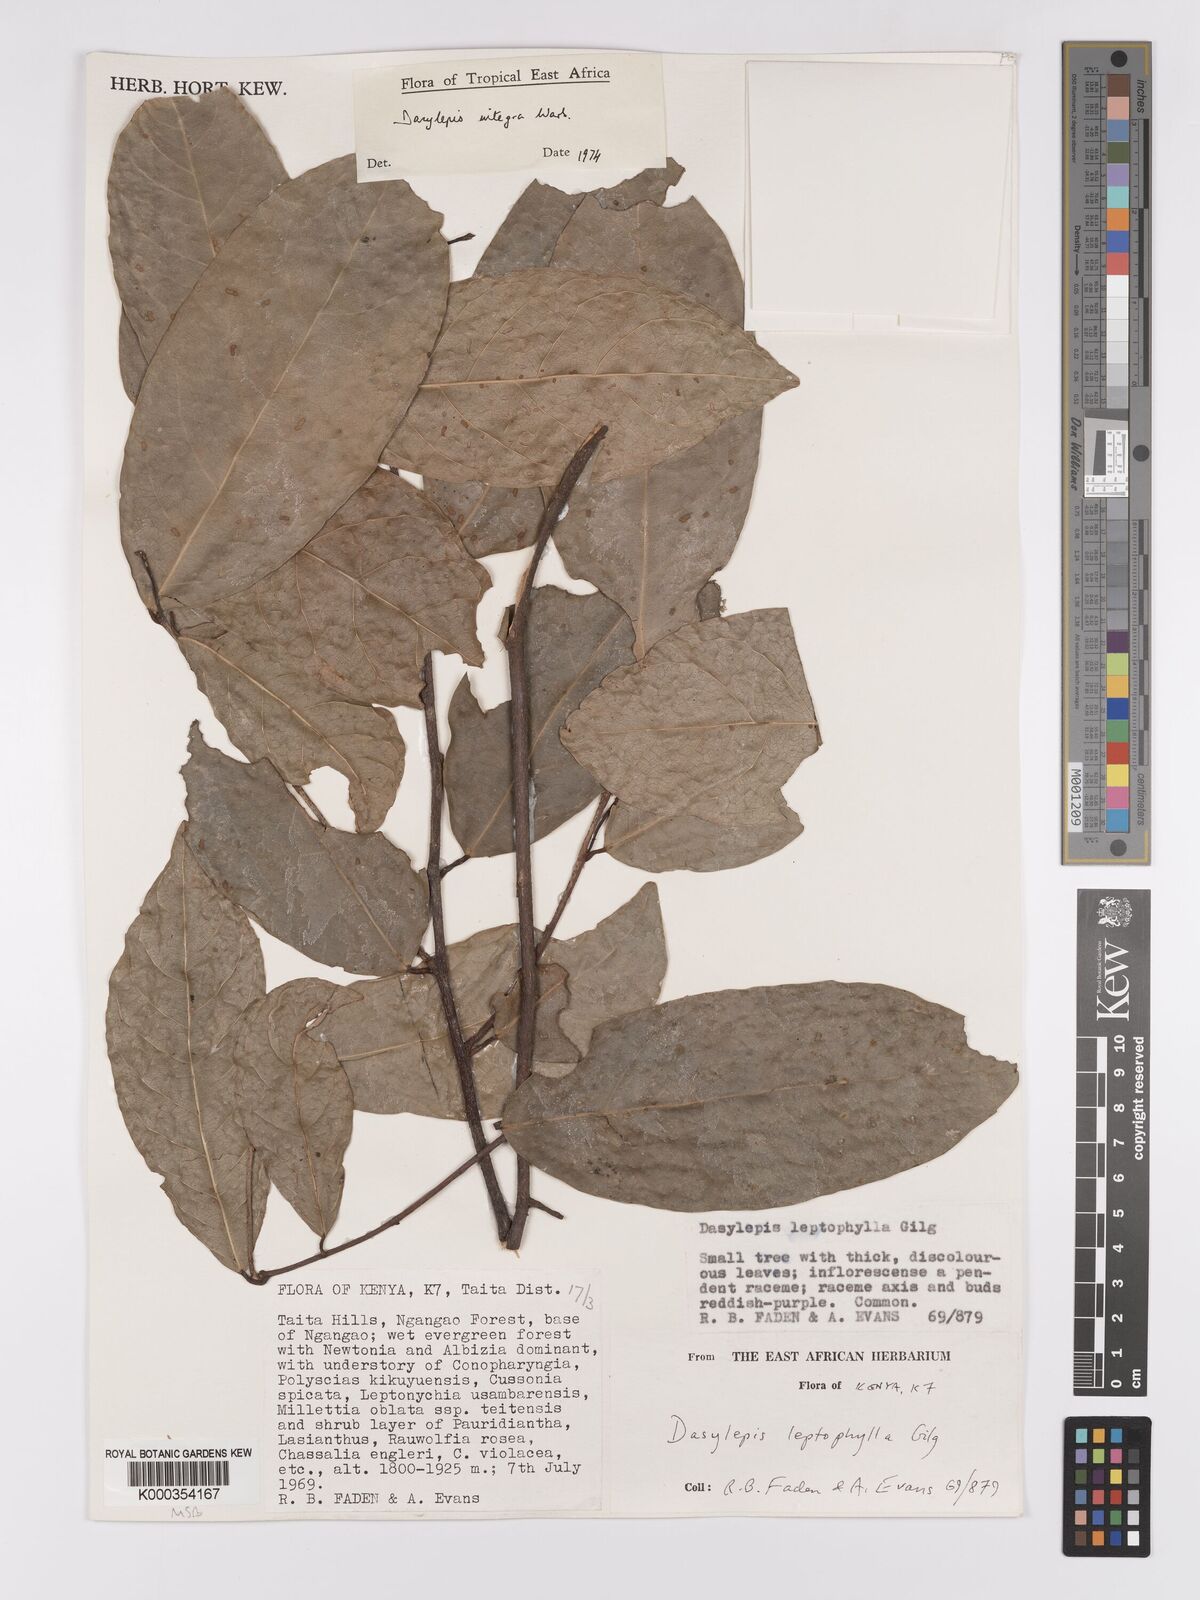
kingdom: Plantae
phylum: Tracheophyta
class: Magnoliopsida
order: Malpighiales
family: Achariaceae
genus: Dasylepis
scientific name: Dasylepis integra
